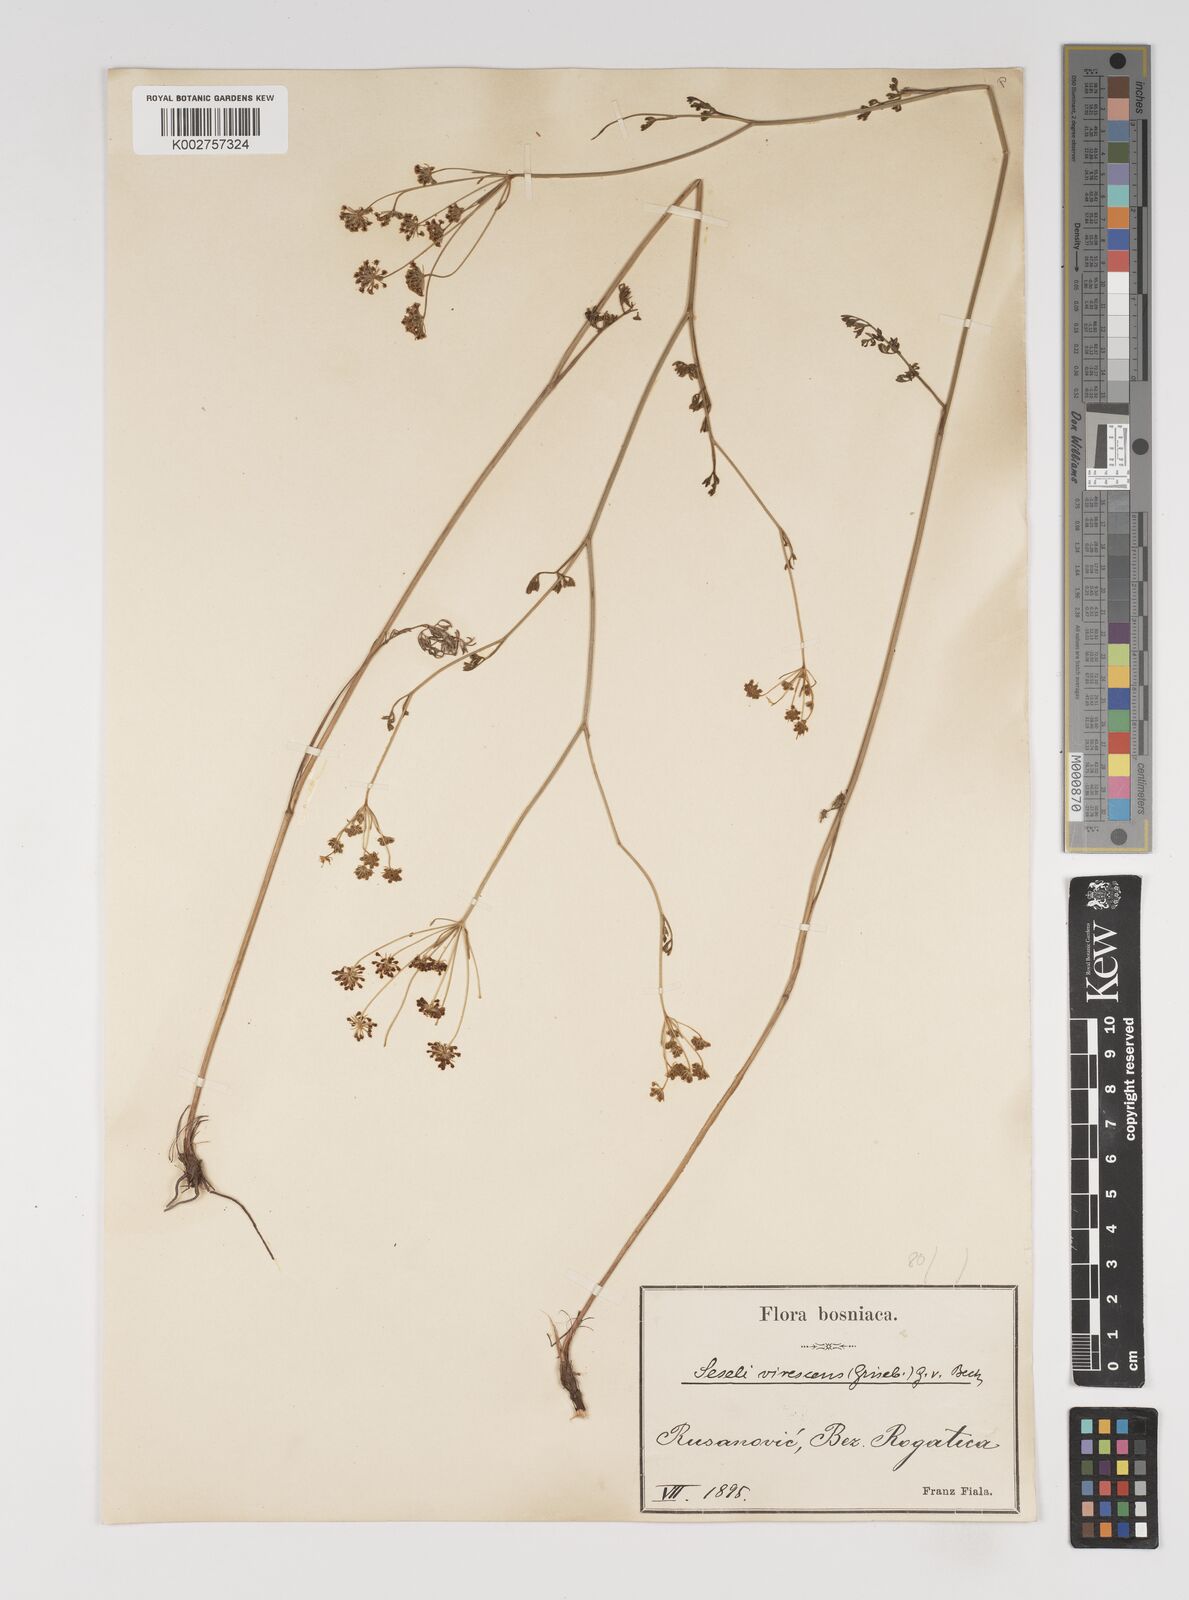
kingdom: Plantae
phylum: Tracheophyta
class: Magnoliopsida
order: Apiales
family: Apiaceae
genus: Gasparinia
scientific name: Gasparinia peucedanoides
